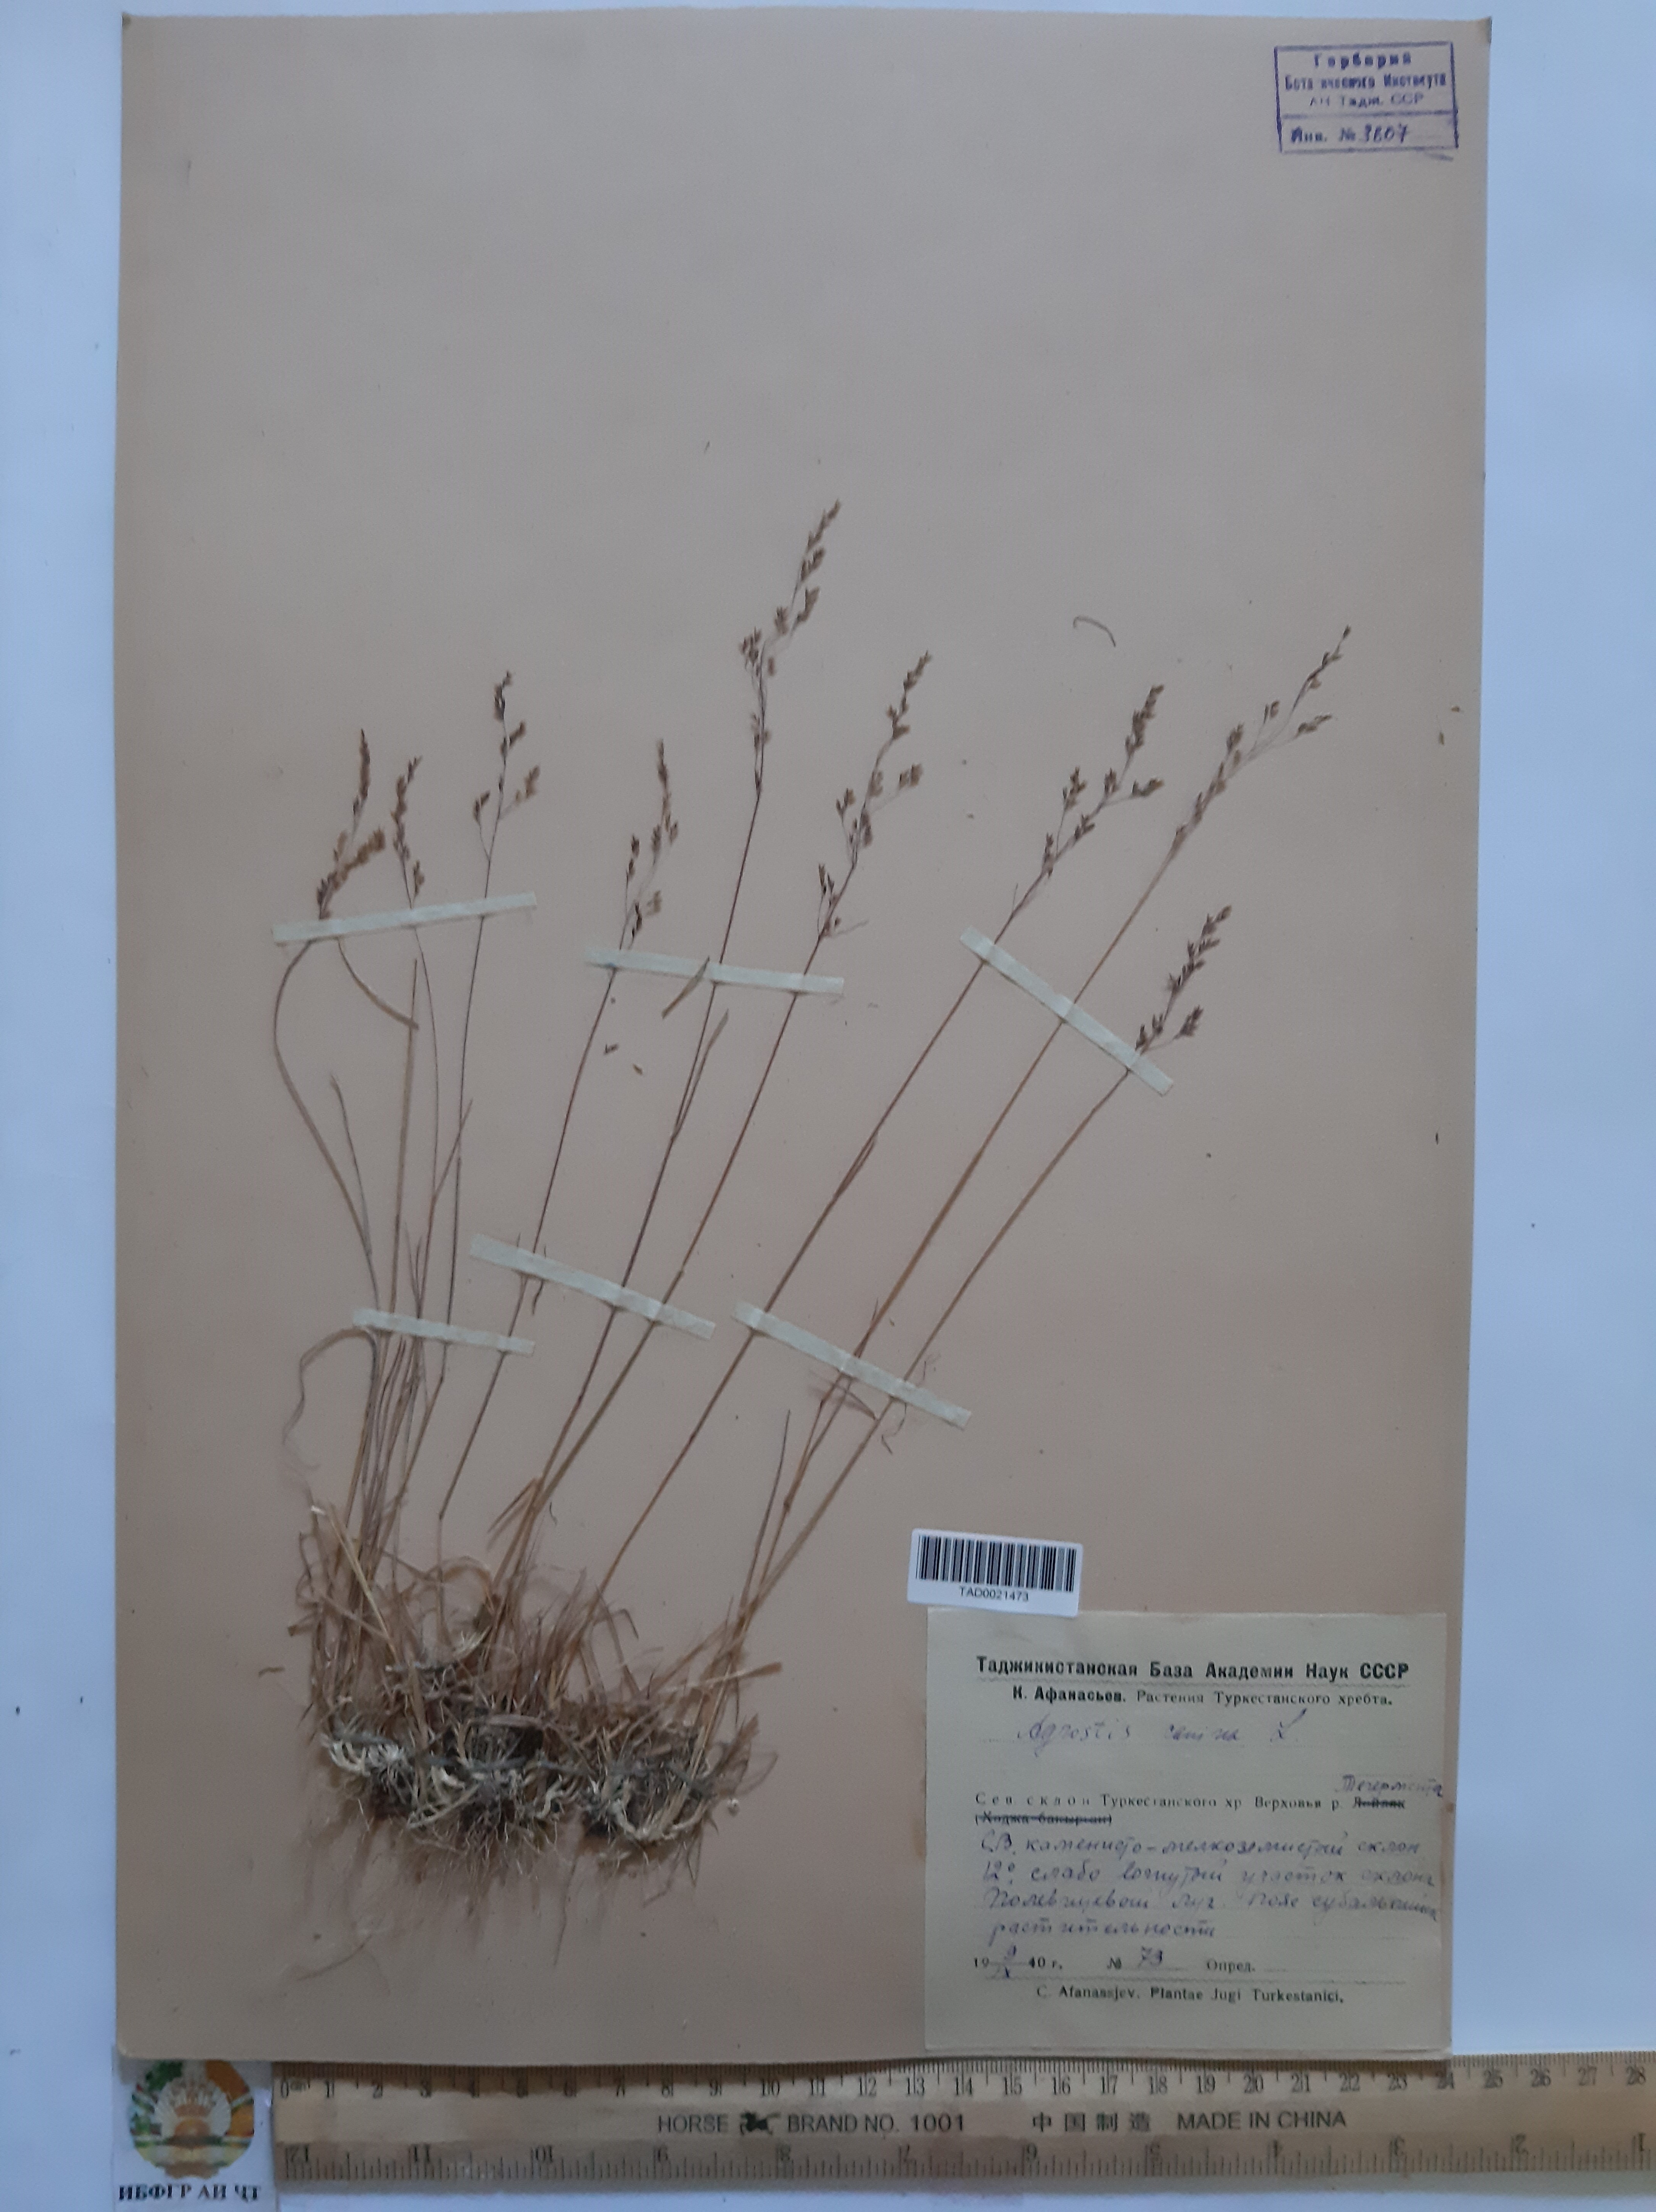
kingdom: Plantae
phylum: Tracheophyta
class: Liliopsida
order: Poales
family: Poaceae
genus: Agrostis
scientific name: Agrostis canina
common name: Velvet bent
